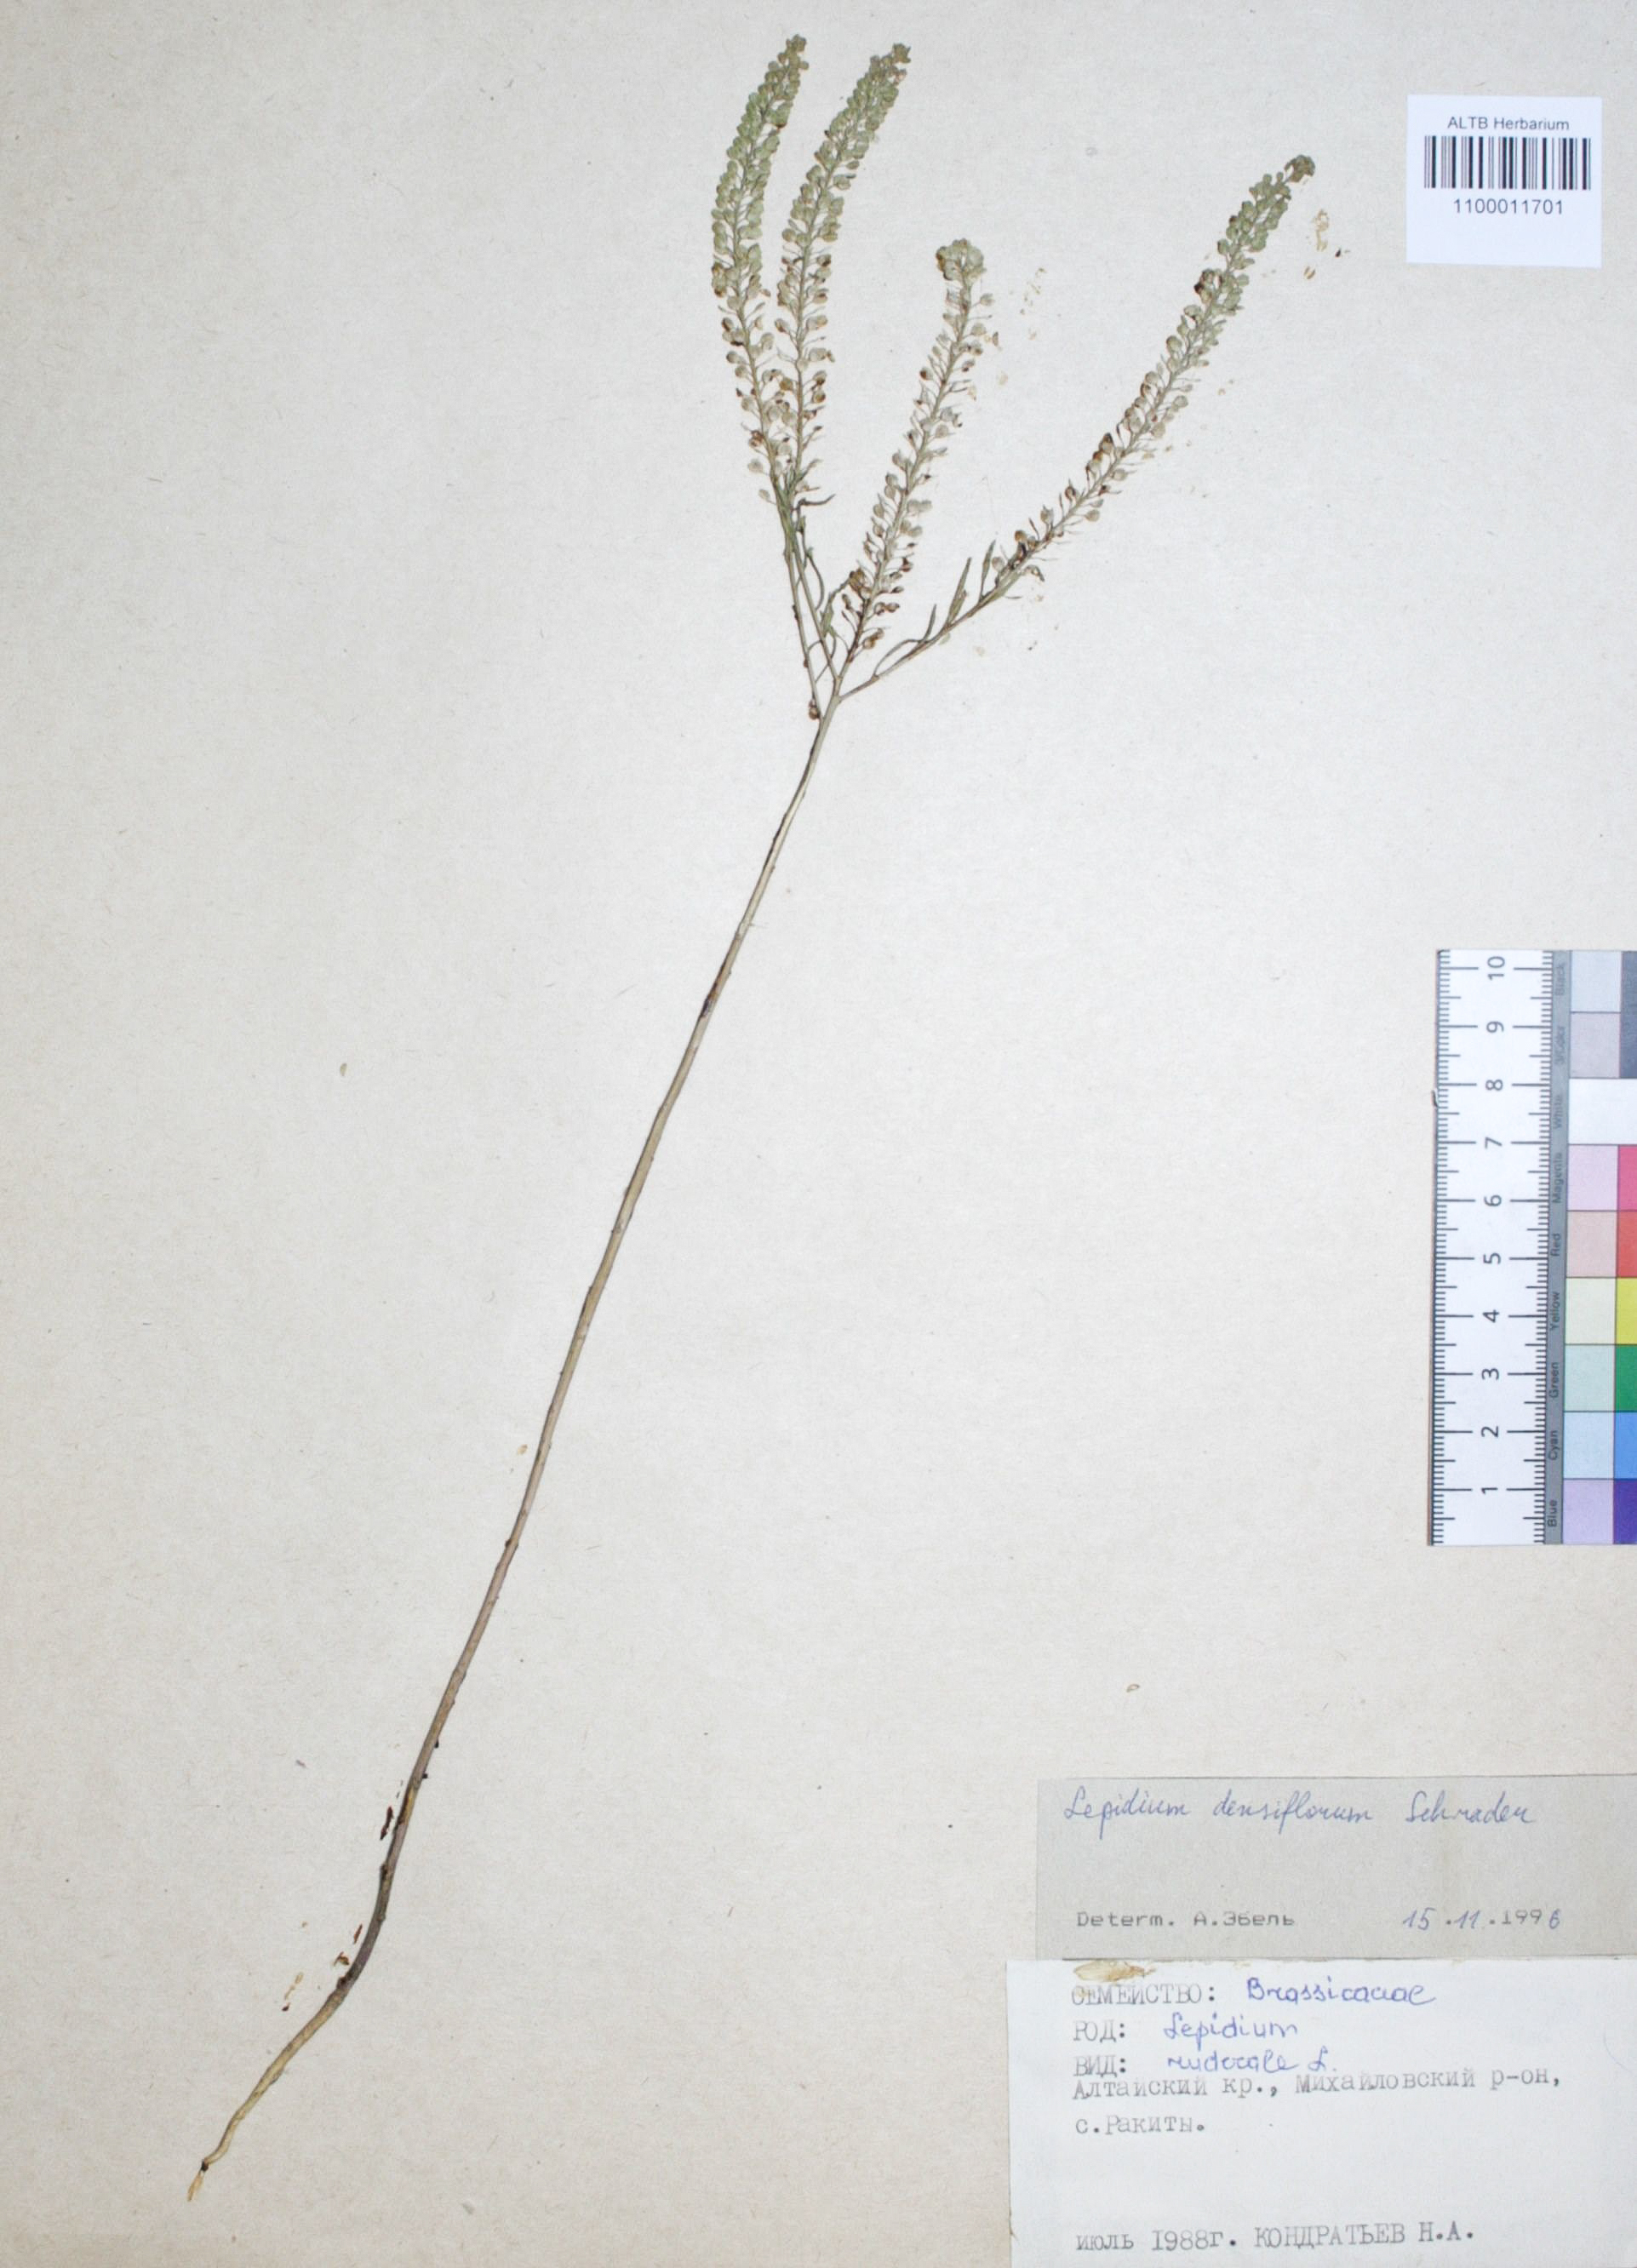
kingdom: Plantae
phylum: Tracheophyta
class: Magnoliopsida
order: Brassicales
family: Brassicaceae
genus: Lepidium
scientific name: Lepidium densiflorum
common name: Miner's pepperwort
